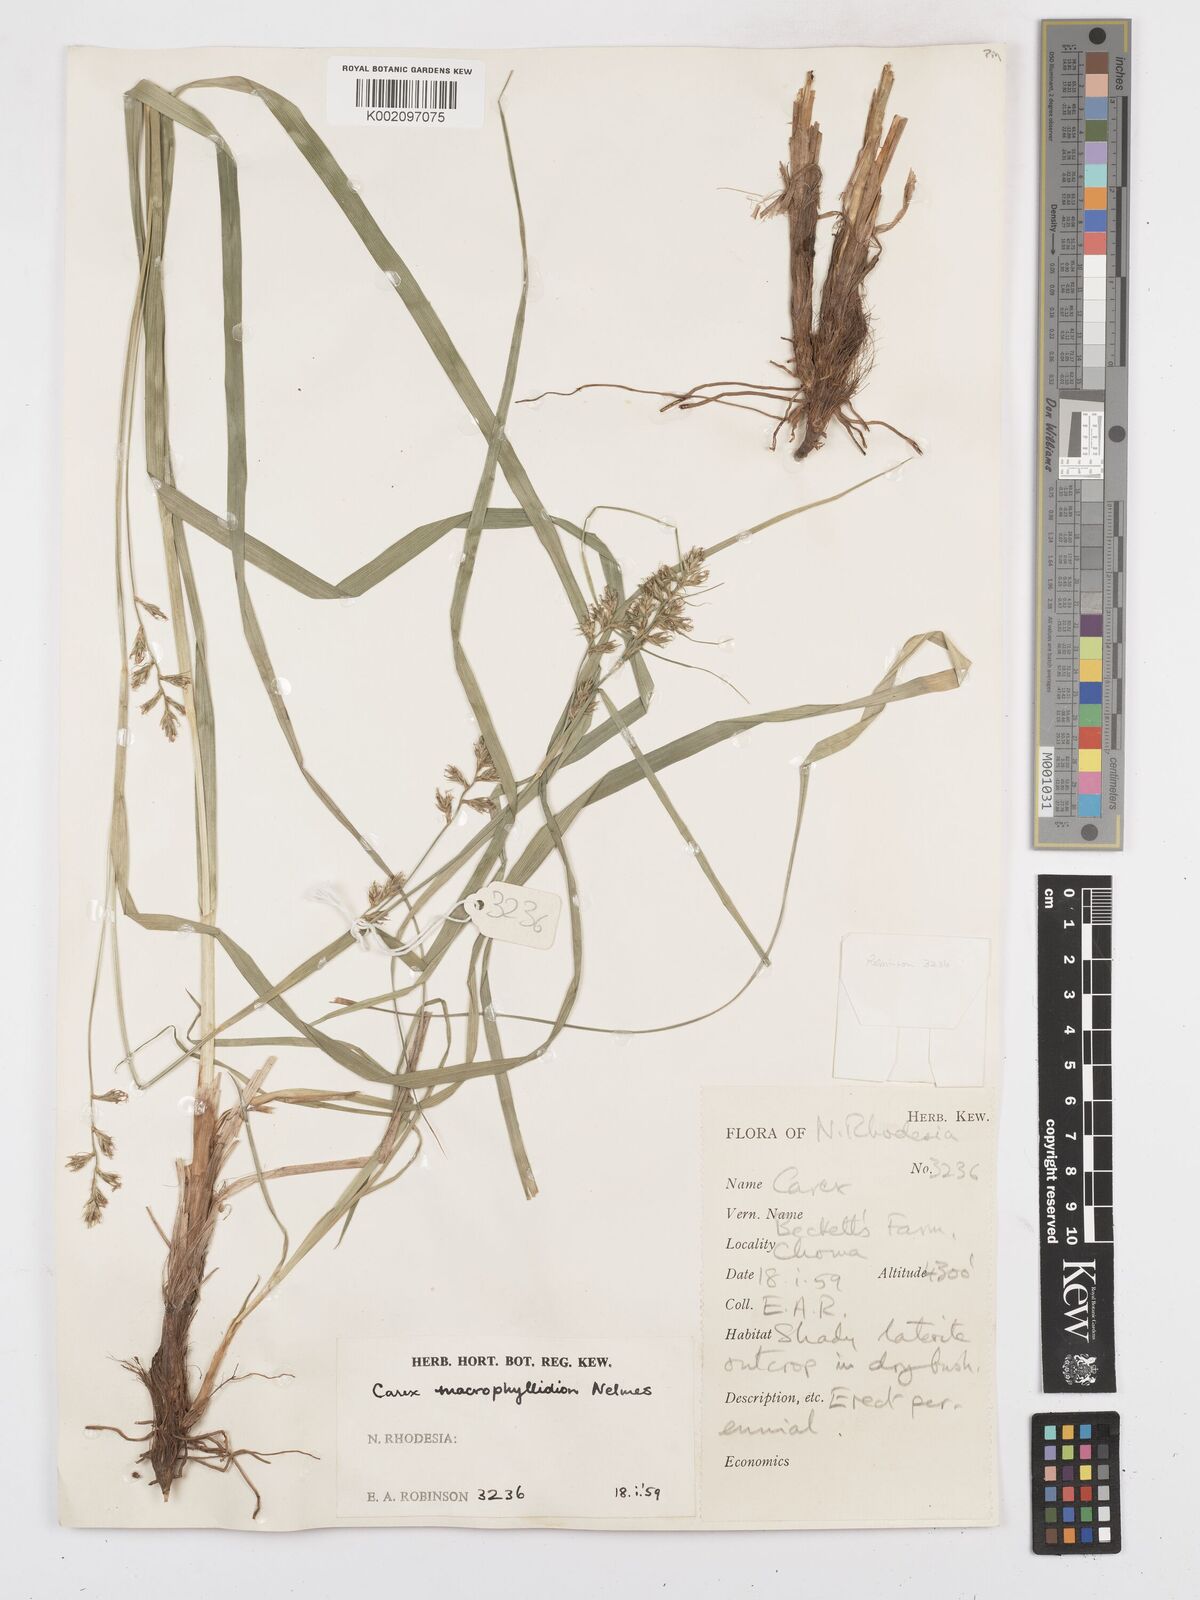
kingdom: Plantae
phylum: Tracheophyta
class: Liliopsida
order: Poales
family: Cyperaceae
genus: Carex
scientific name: Carex macrophyllidion
